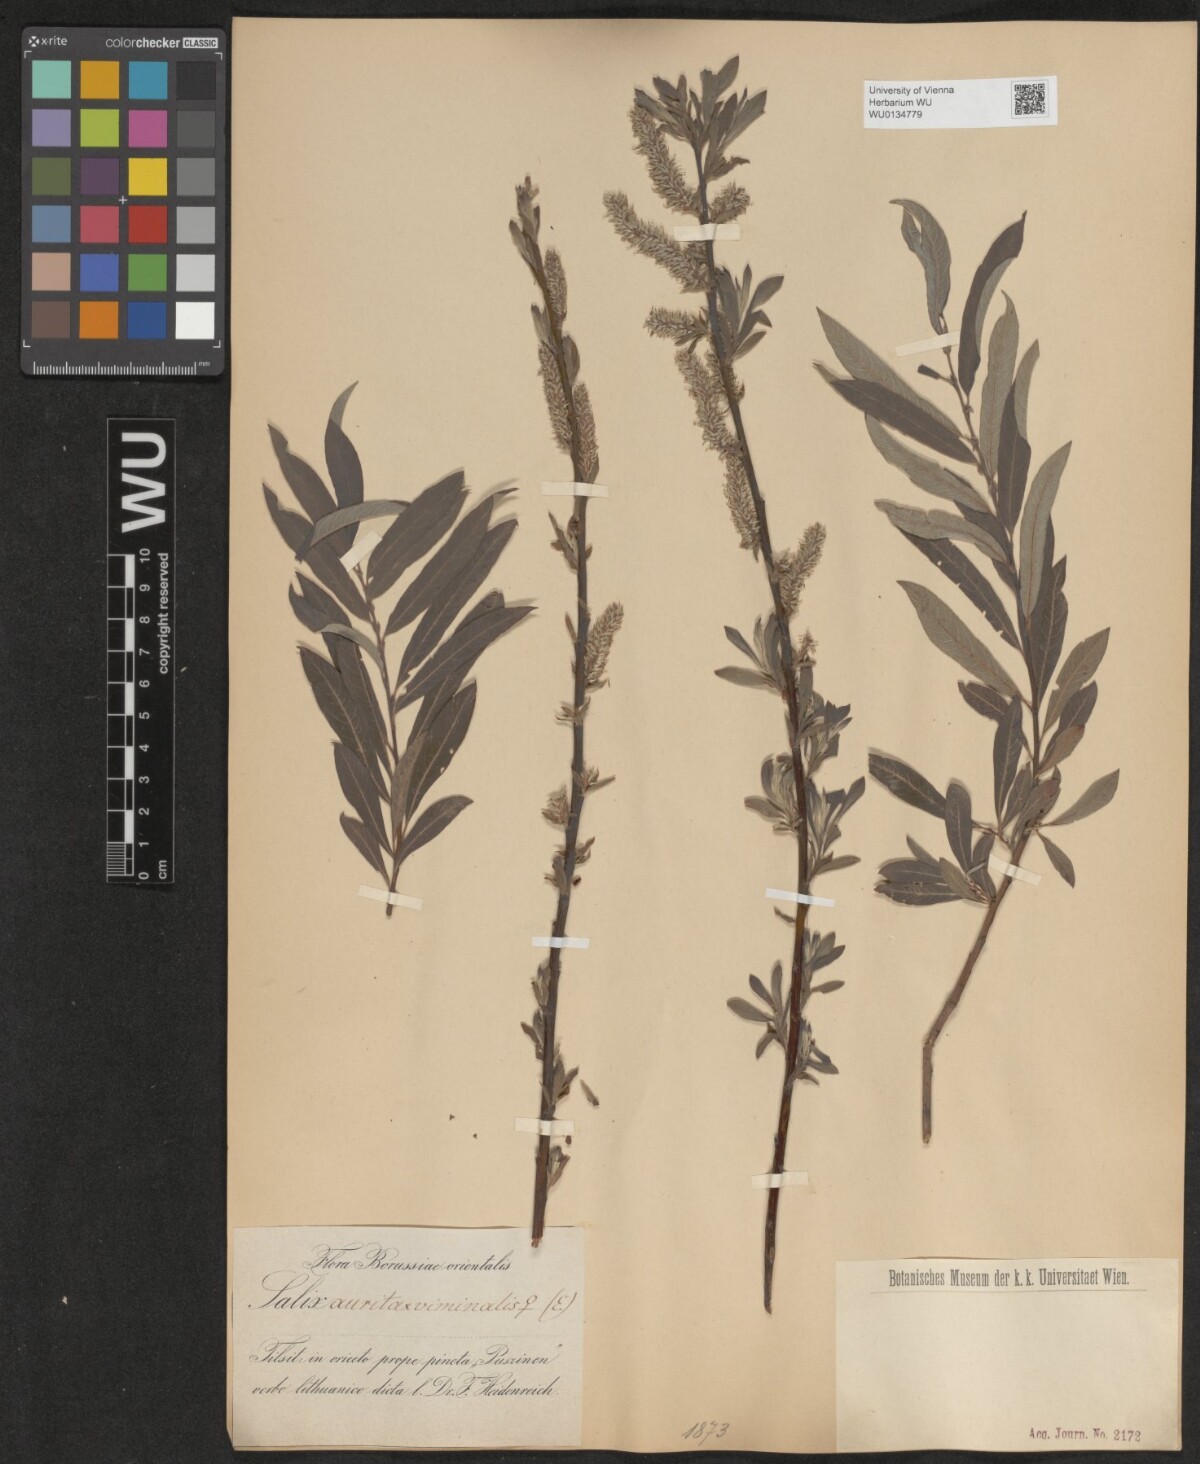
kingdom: Plantae
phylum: Tracheophyta
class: Magnoliopsida
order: Malpighiales
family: Salicaceae
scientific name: Salicaceae
